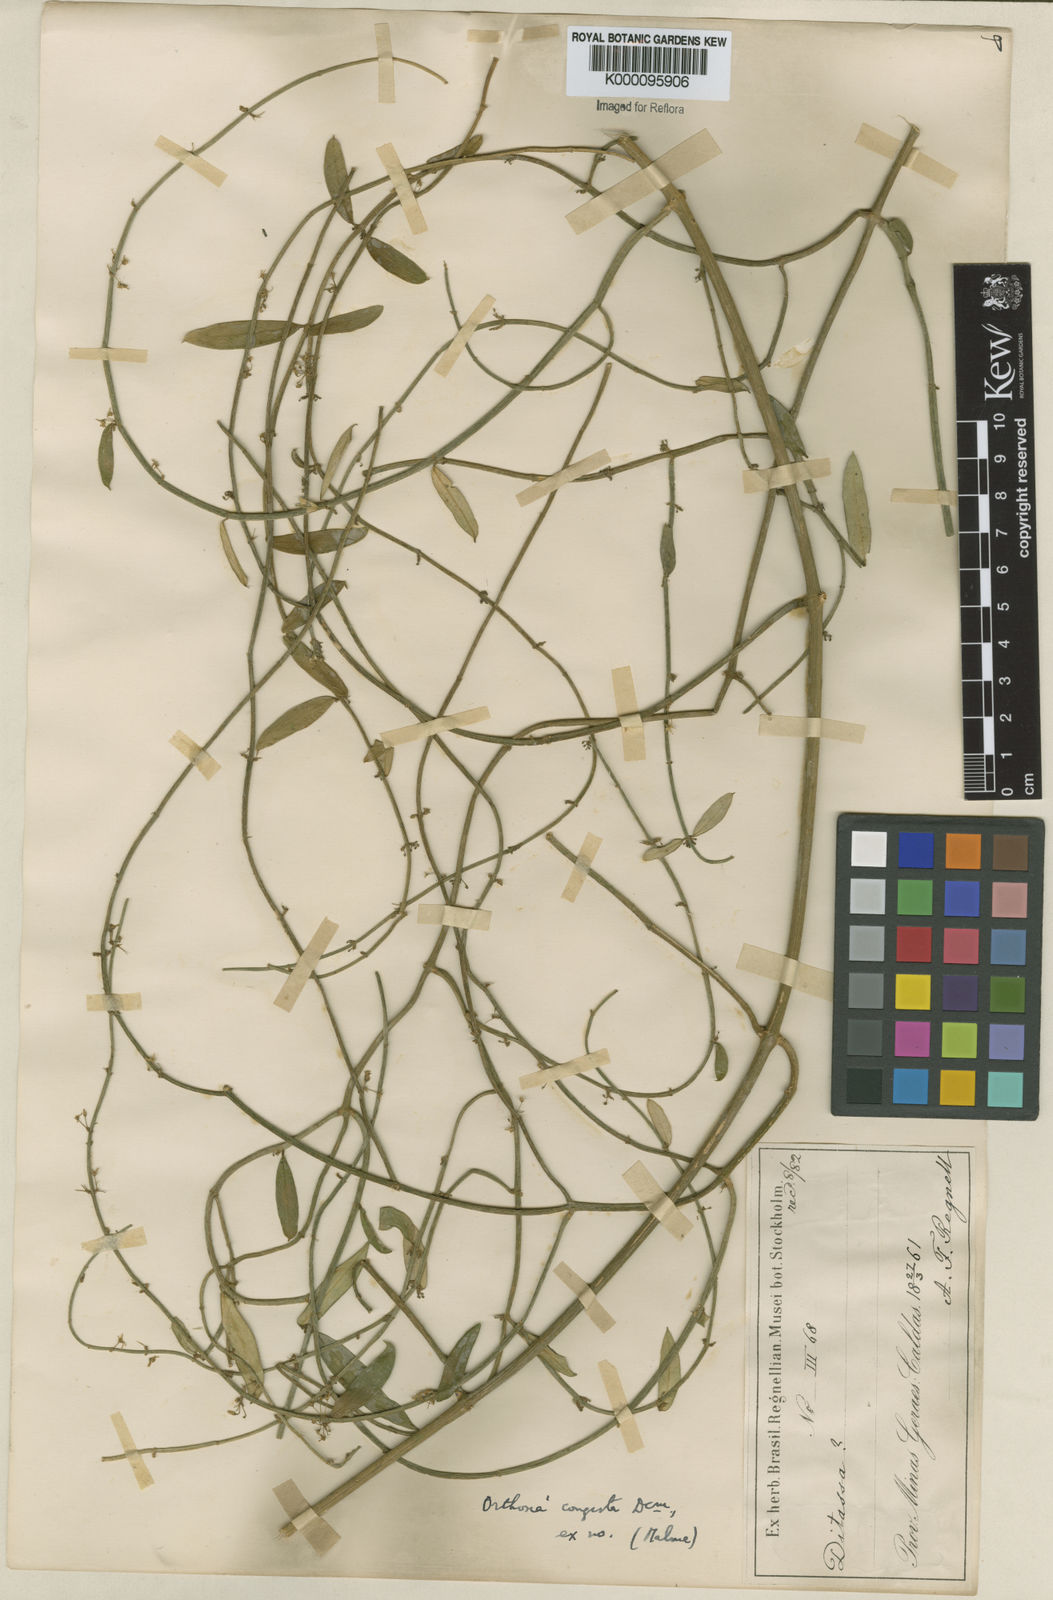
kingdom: Plantae
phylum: Tracheophyta
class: Magnoliopsida
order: Gentianales
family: Apocynaceae
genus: Orthosia
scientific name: Orthosia congesta
